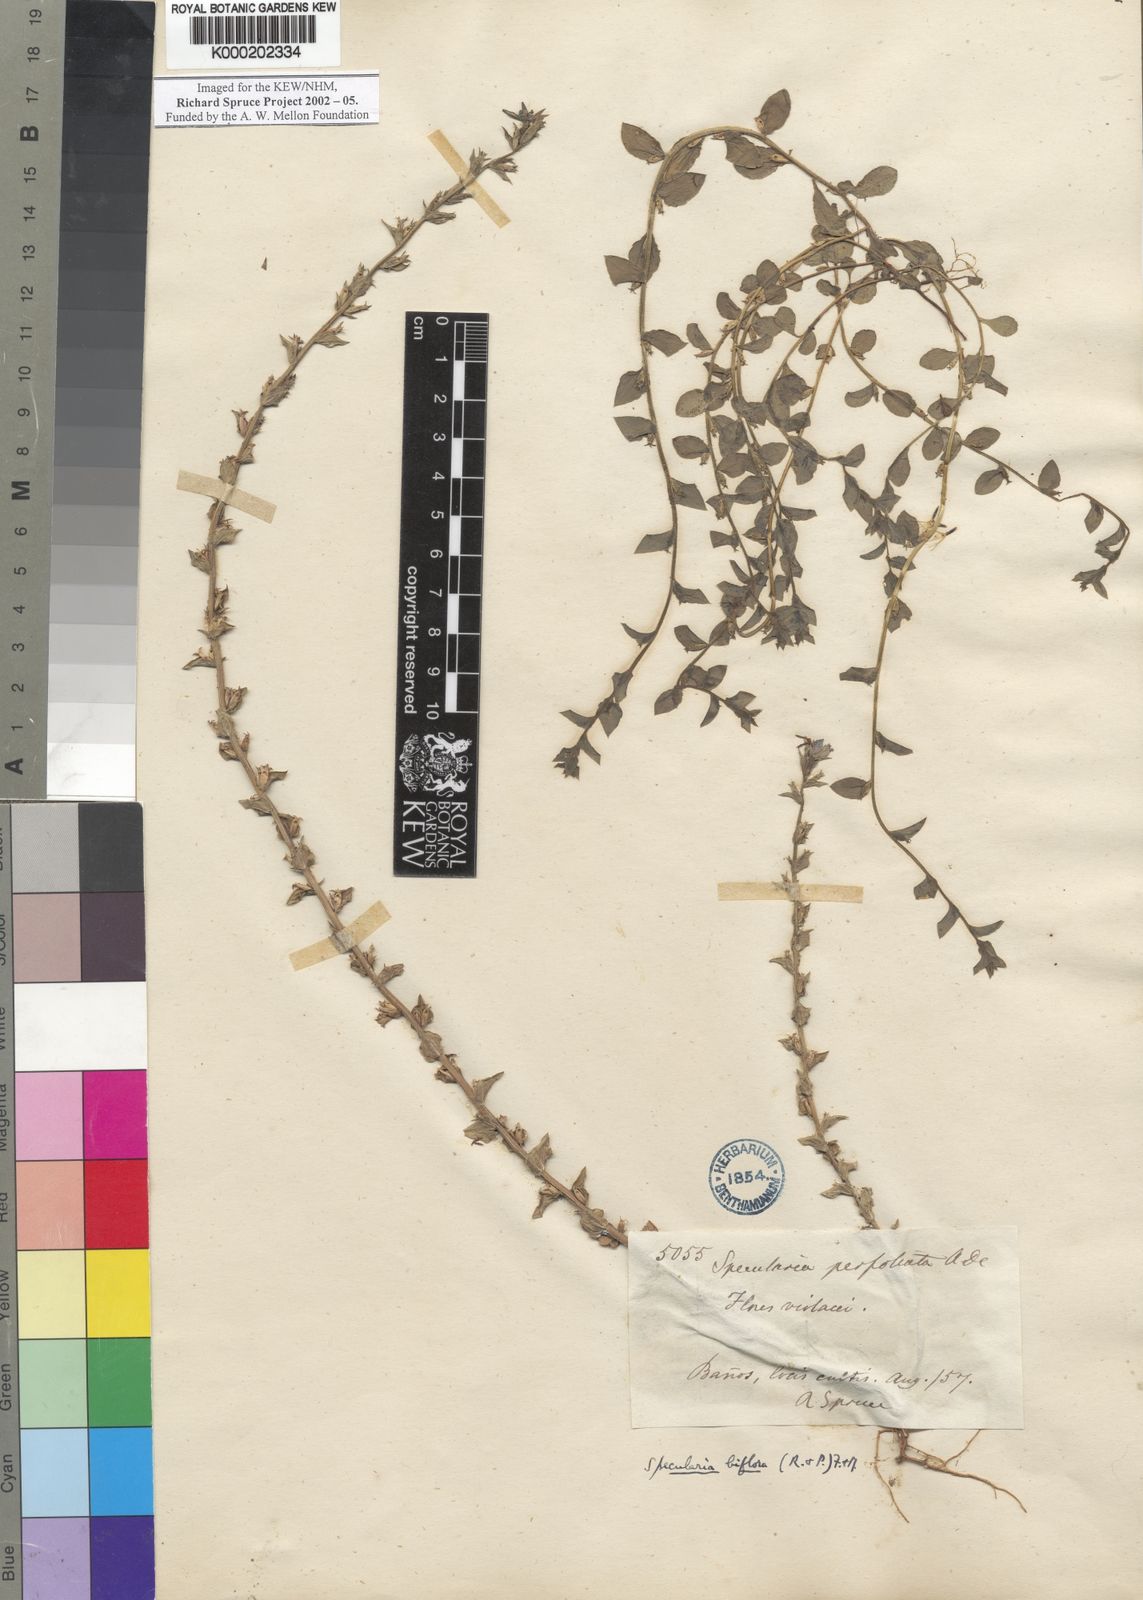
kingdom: Plantae
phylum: Tracheophyta
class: Magnoliopsida
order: Asterales
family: Campanulaceae
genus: Triodanis
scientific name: Triodanis perfoliata
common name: Clasping venus' looking-glass
